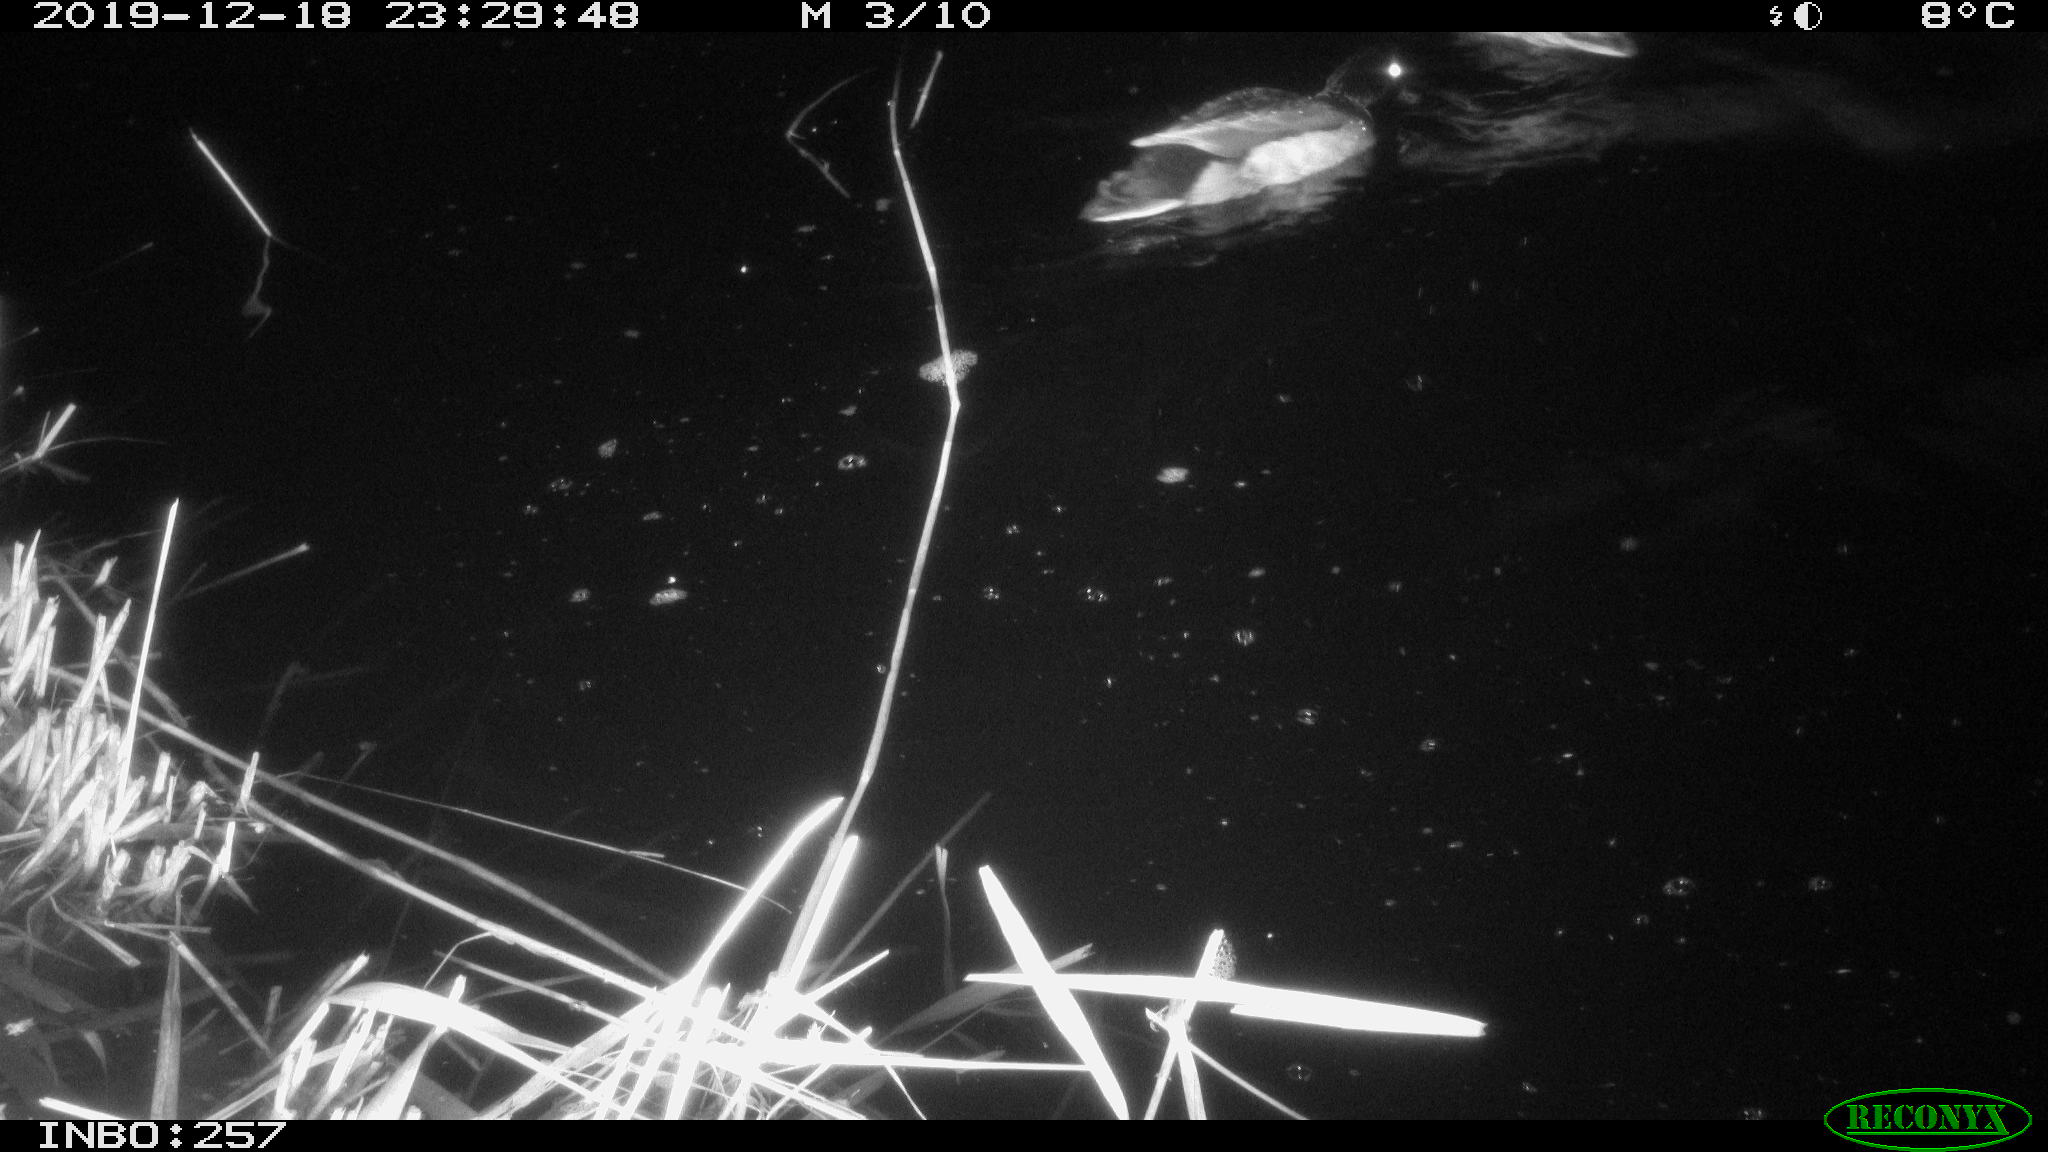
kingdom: Animalia
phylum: Chordata
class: Aves
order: Anseriformes
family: Anatidae
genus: Anas
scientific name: Anas platyrhynchos
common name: Mallard
